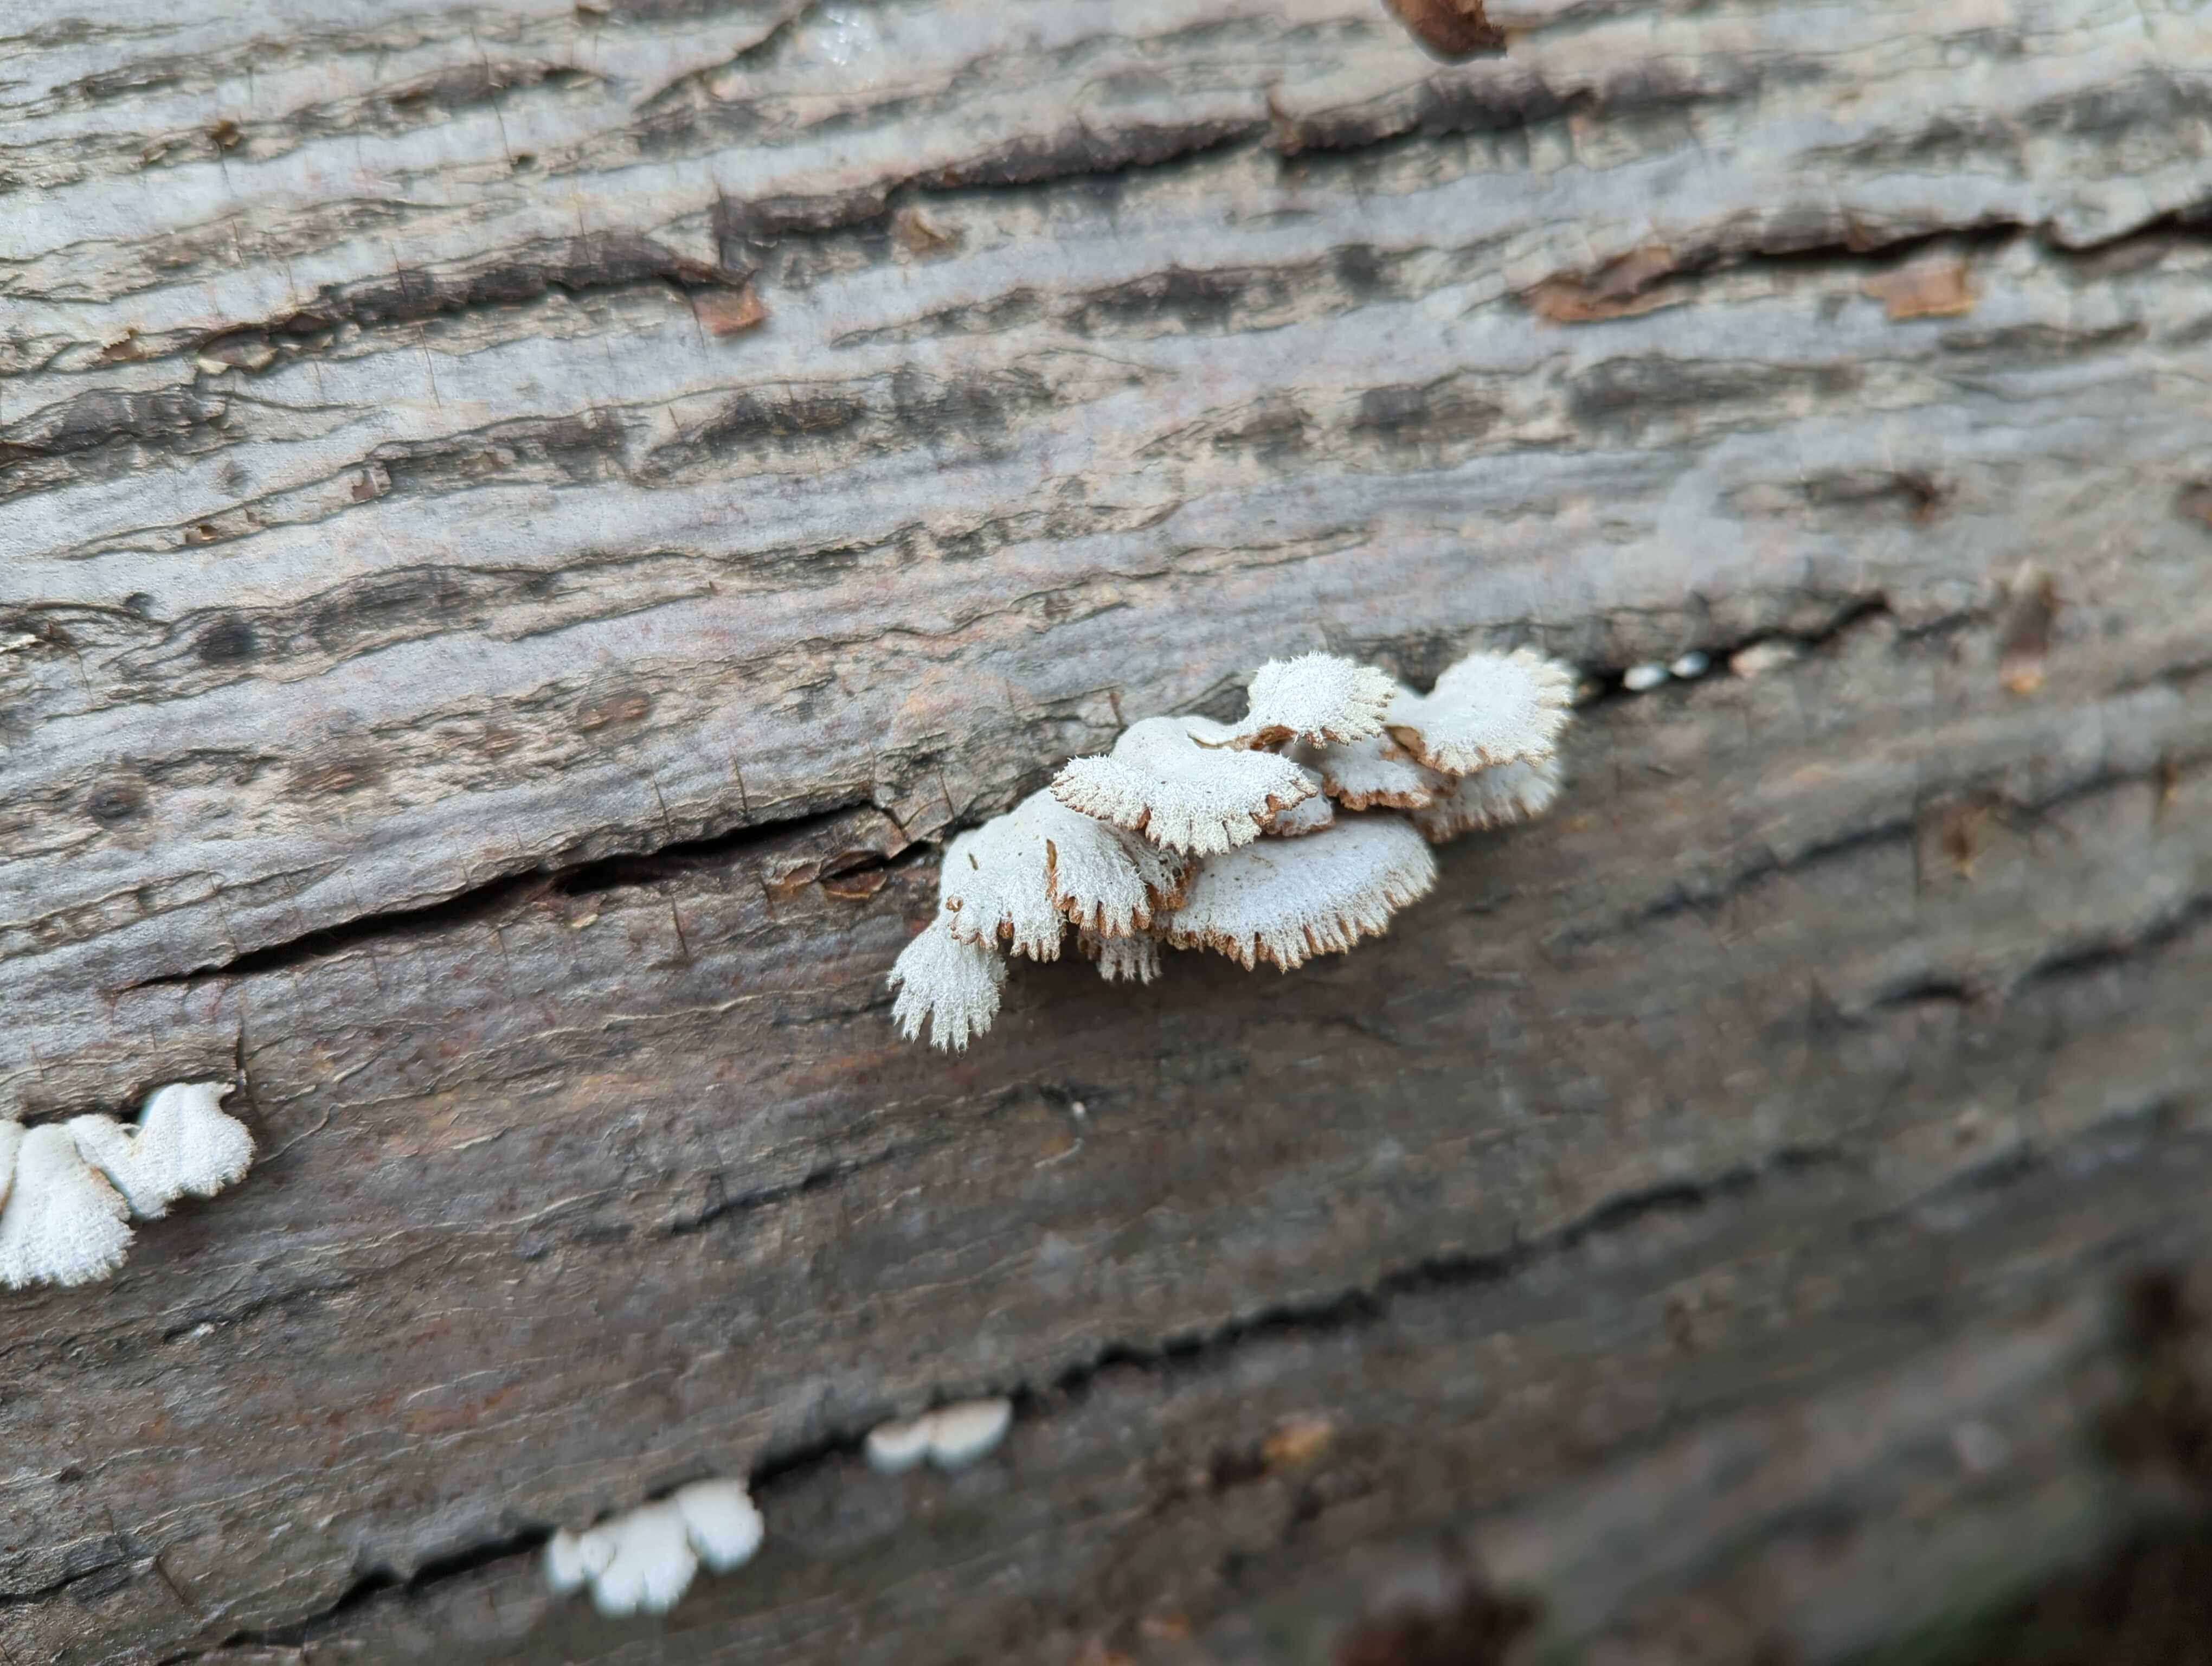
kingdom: Fungi
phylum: Basidiomycota
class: Agaricomycetes
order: Agaricales
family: Schizophyllaceae
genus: Schizophyllum
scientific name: Schizophyllum commune
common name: kløvblad
